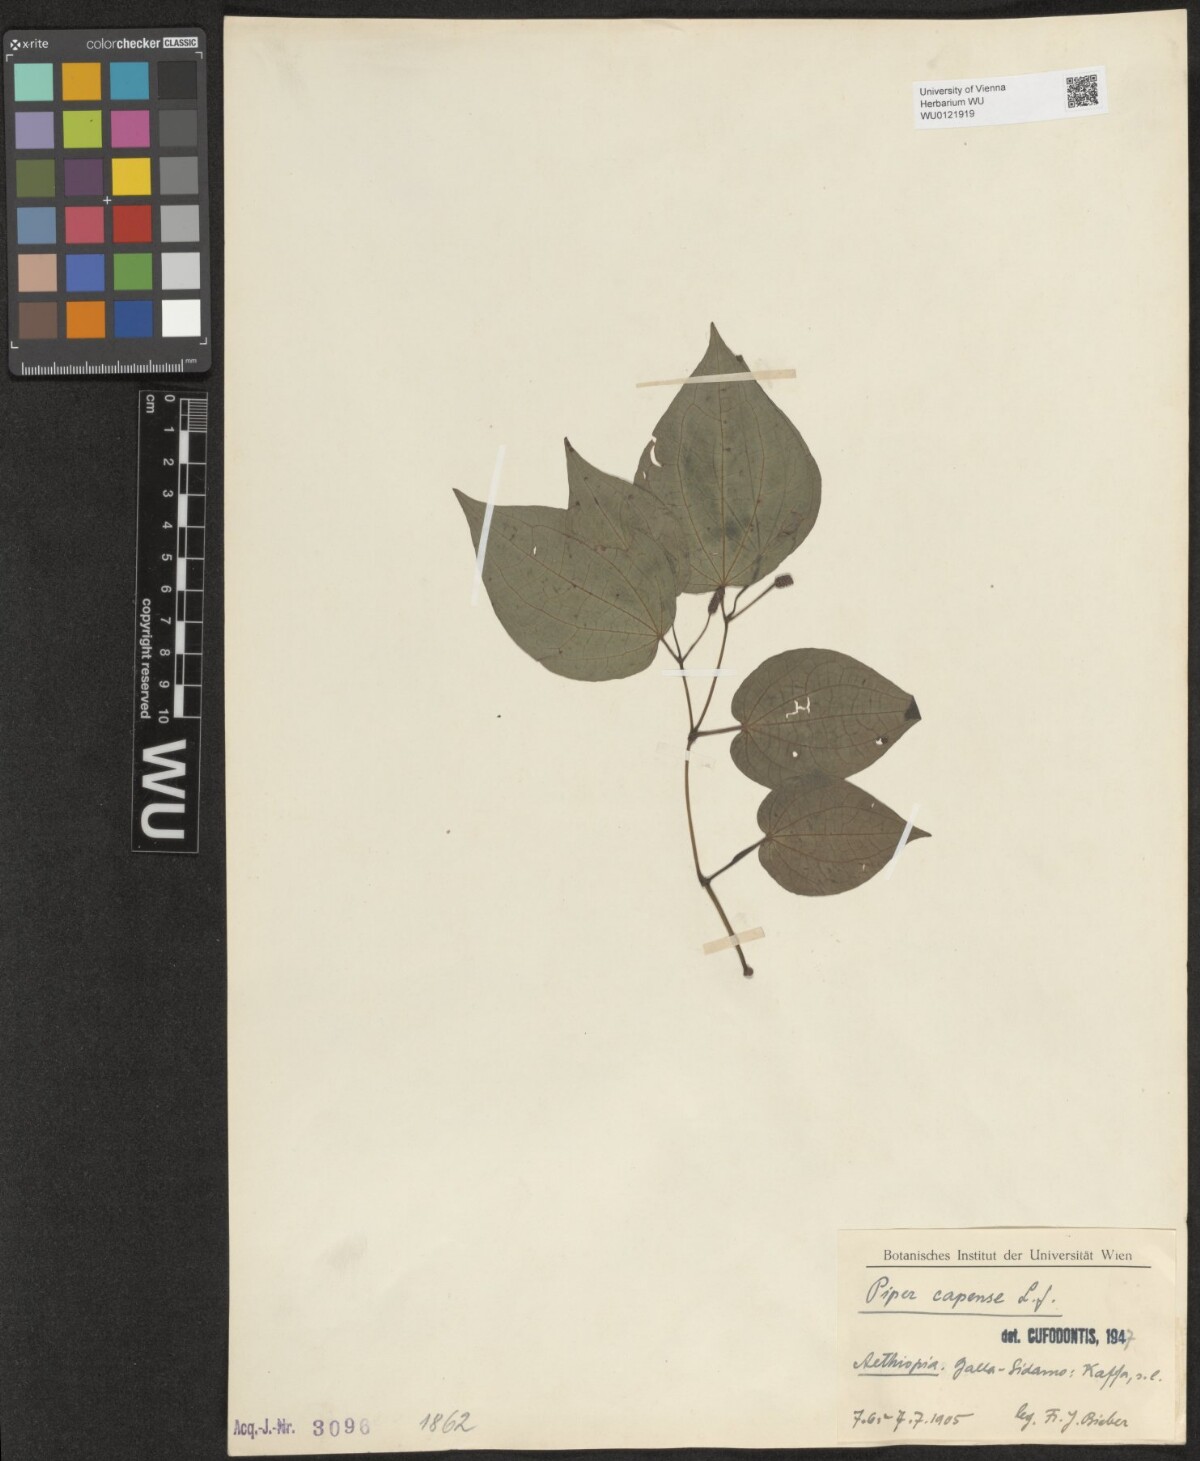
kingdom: Plantae
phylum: Tracheophyta
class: Magnoliopsida
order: Piperales
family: Piperaceae
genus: Piper
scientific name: Piper capense
